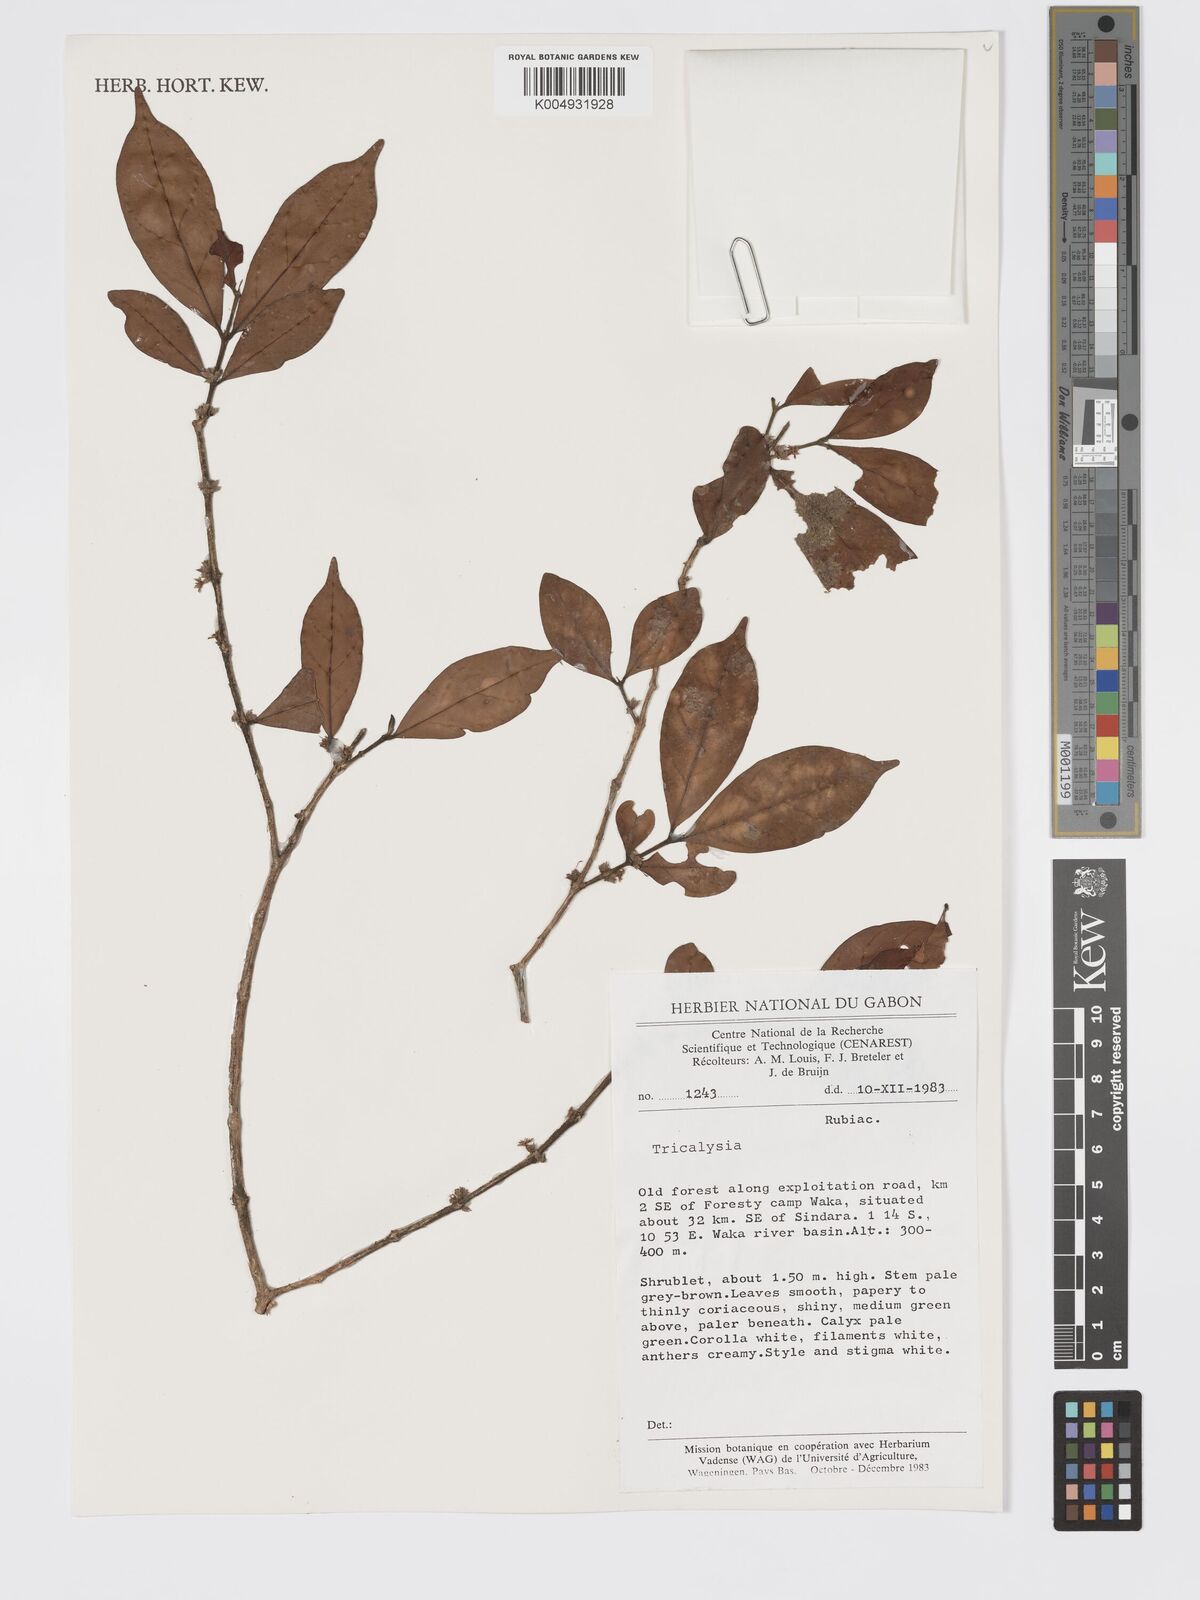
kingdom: Plantae
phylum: Tracheophyta
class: Magnoliopsida
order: Gentianales
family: Rubiaceae
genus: Tricalysia
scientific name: Tricalysia
